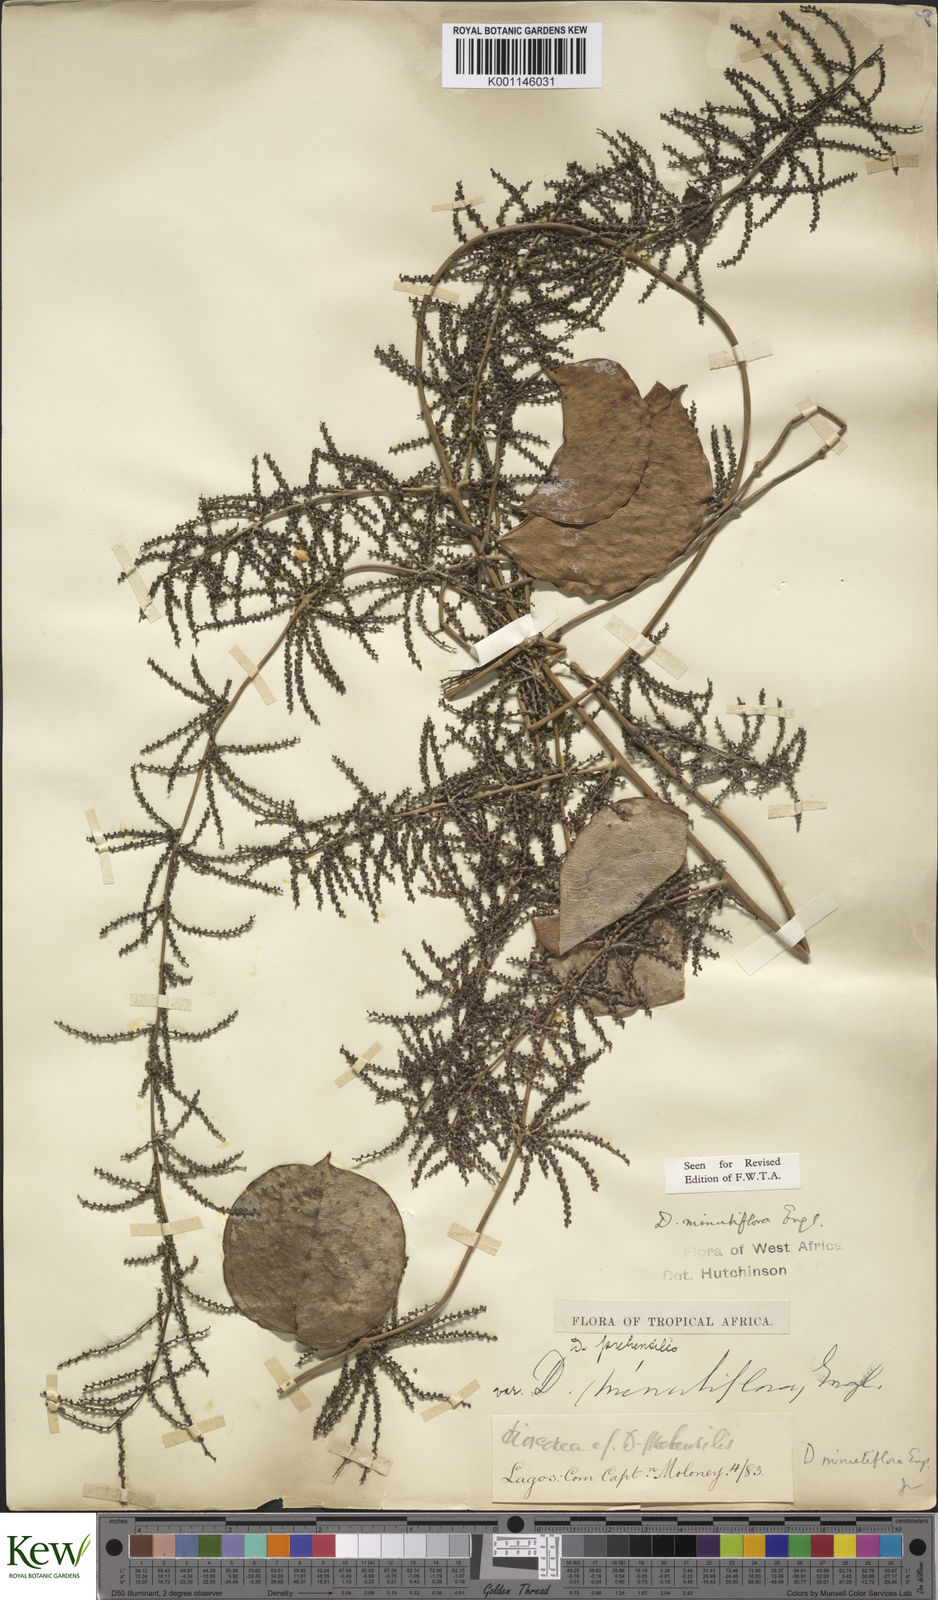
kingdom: Plantae
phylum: Tracheophyta
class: Liliopsida
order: Dioscoreales
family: Dioscoreaceae
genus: Dioscorea
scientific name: Dioscorea minutiflora
